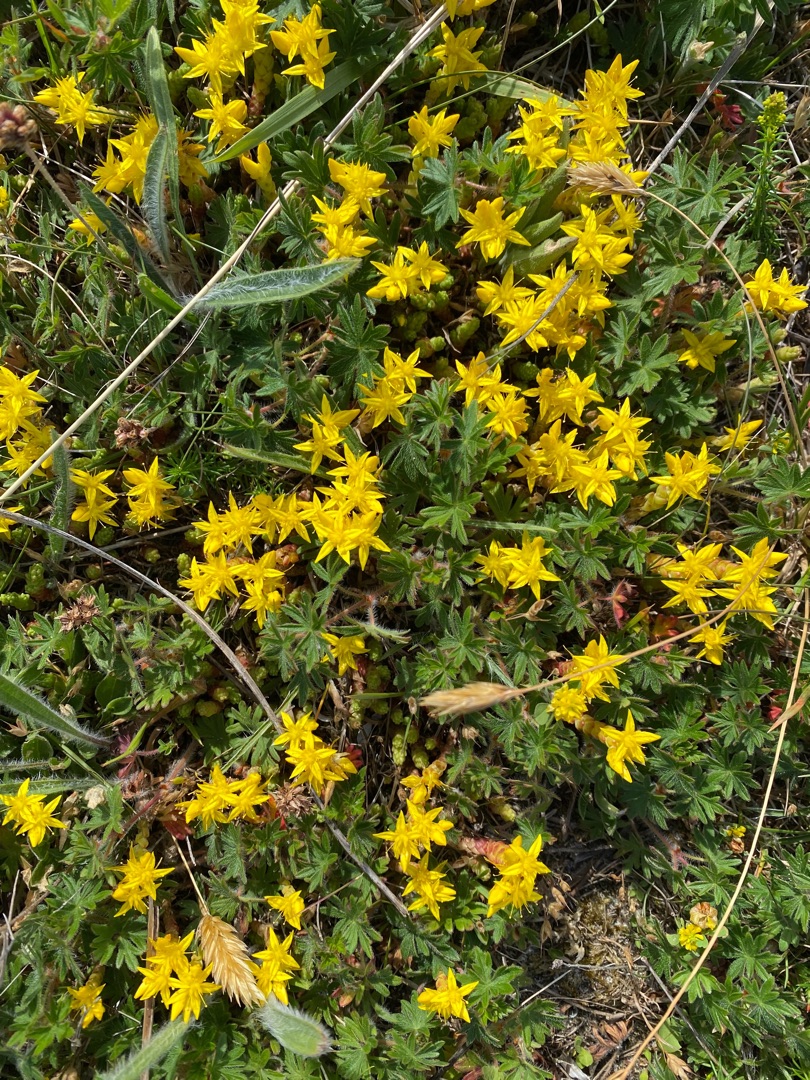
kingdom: Plantae
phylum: Tracheophyta
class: Magnoliopsida
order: Saxifragales
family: Crassulaceae
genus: Sedum
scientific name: Sedum acre
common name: Bidende stenurt
